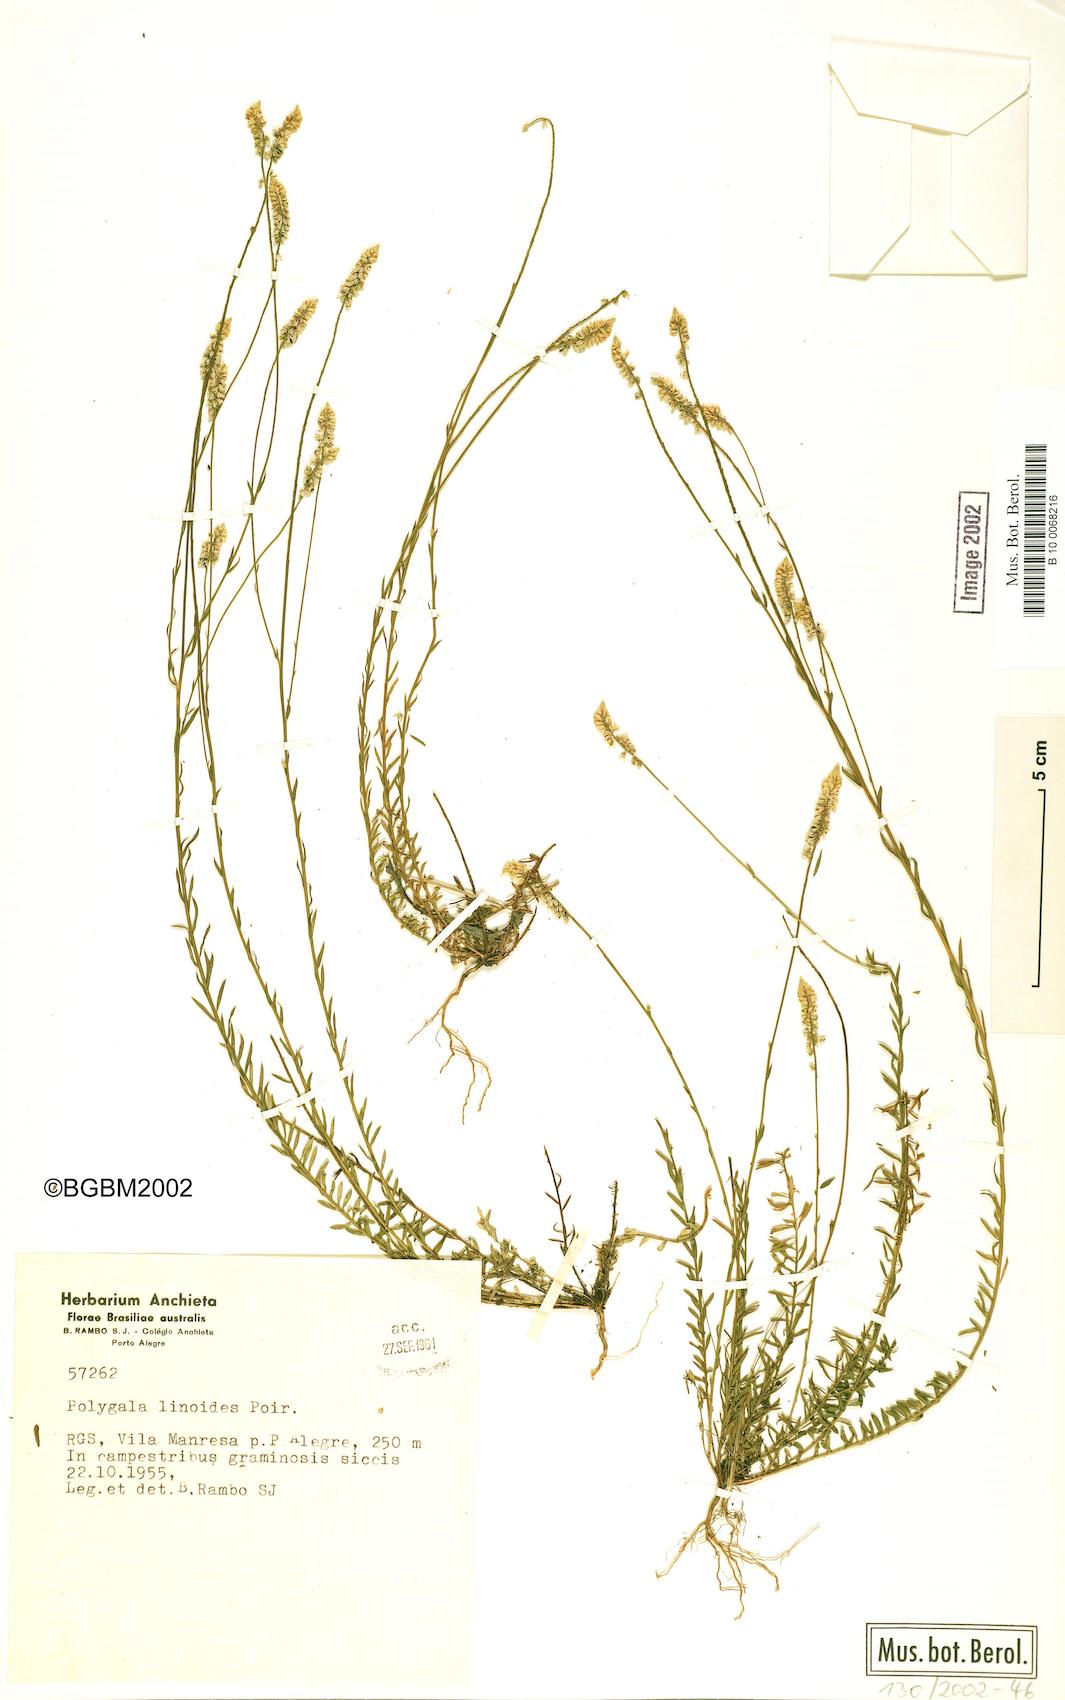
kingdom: Plantae
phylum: Tracheophyta
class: Magnoliopsida
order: Fabales
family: Polygalaceae
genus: Polygala
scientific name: Polygala linoides
